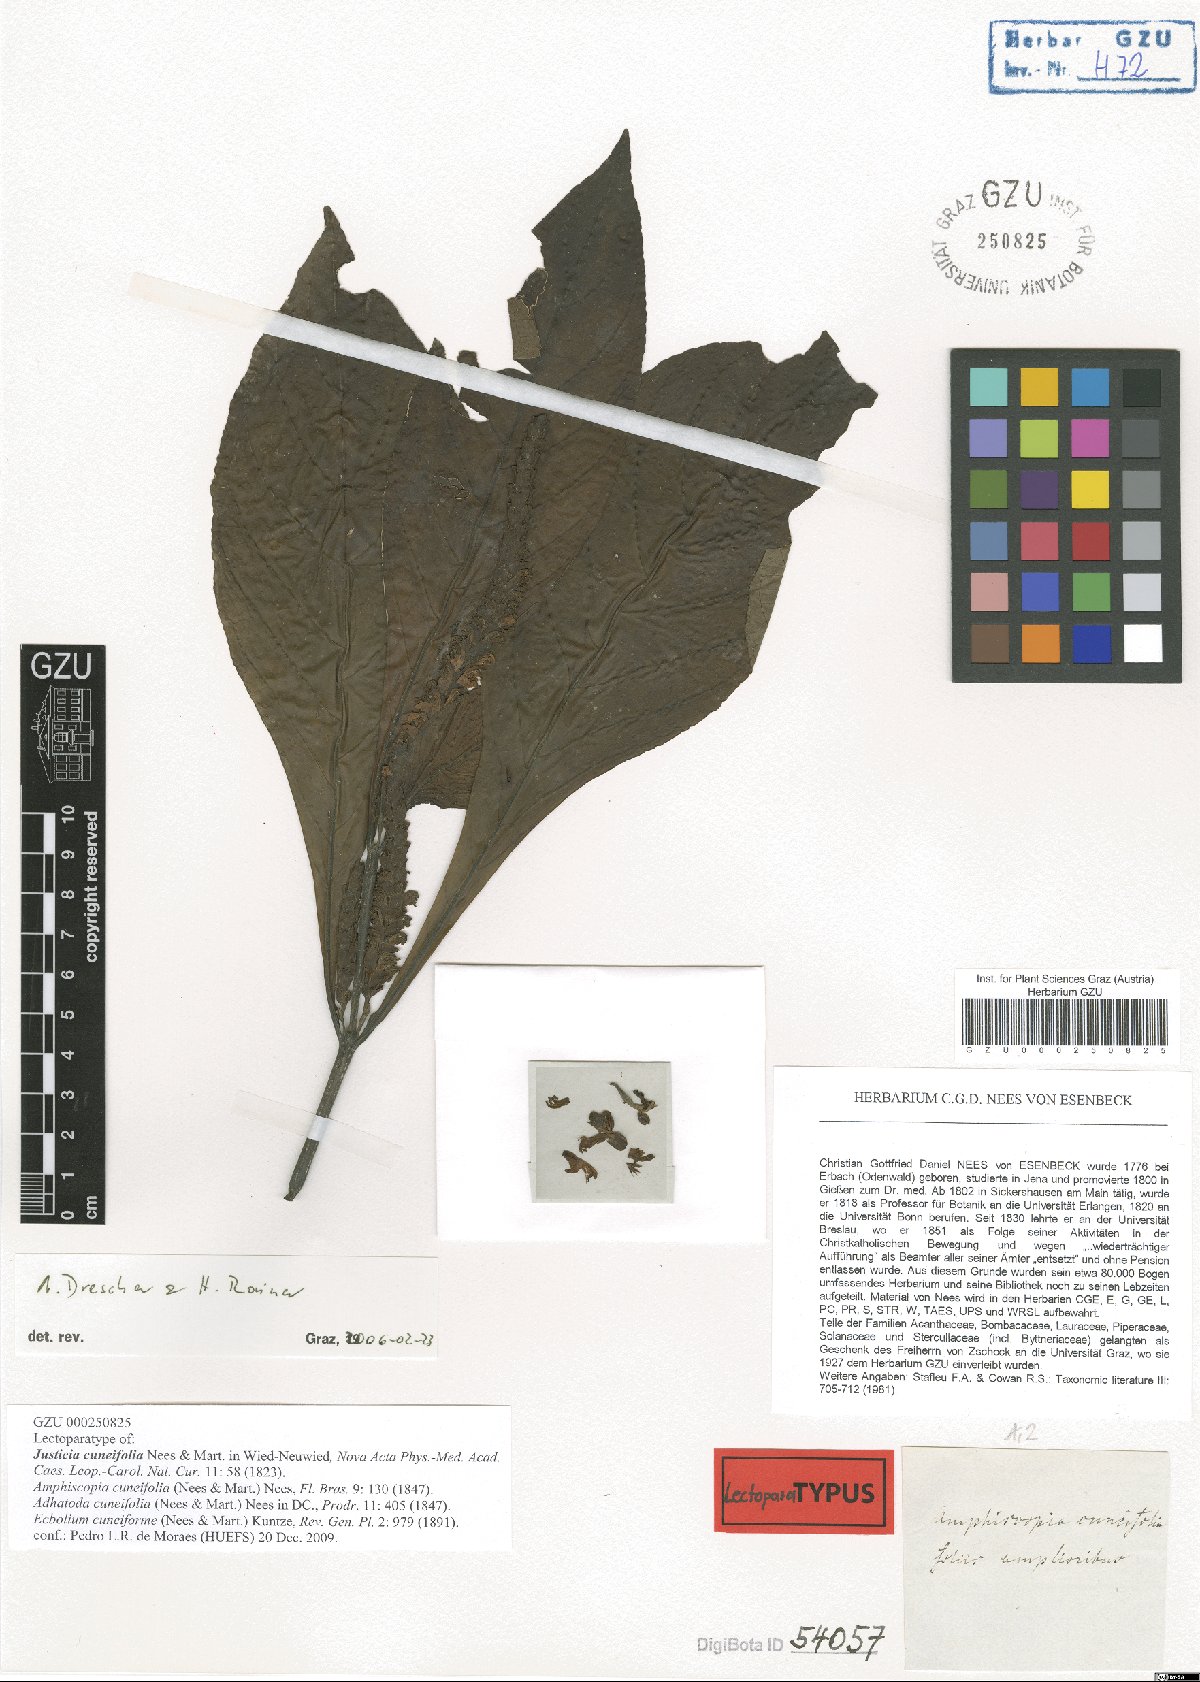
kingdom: Plantae
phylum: Tracheophyta
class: Magnoliopsida
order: Lamiales
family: Acanthaceae
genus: Justicia
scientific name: Justicia cuneifolia
